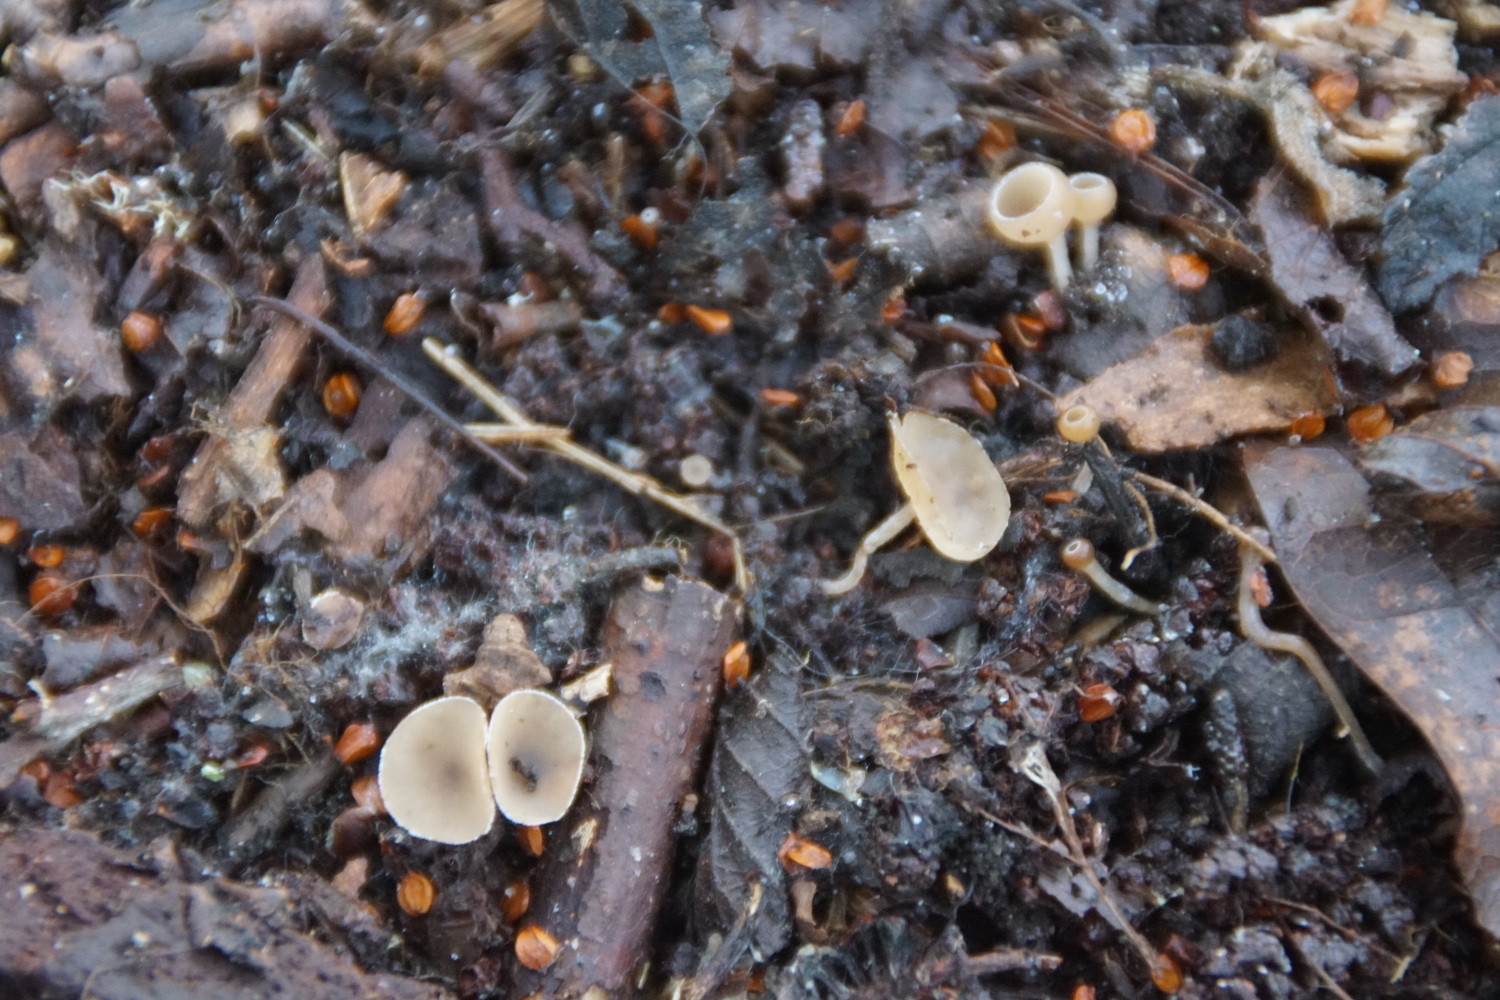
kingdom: Fungi
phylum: Ascomycota
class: Leotiomycetes
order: Helotiales
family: Sclerotiniaceae
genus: Ciboria
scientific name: Ciboria amentacea
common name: ellerakle-knoldskive
